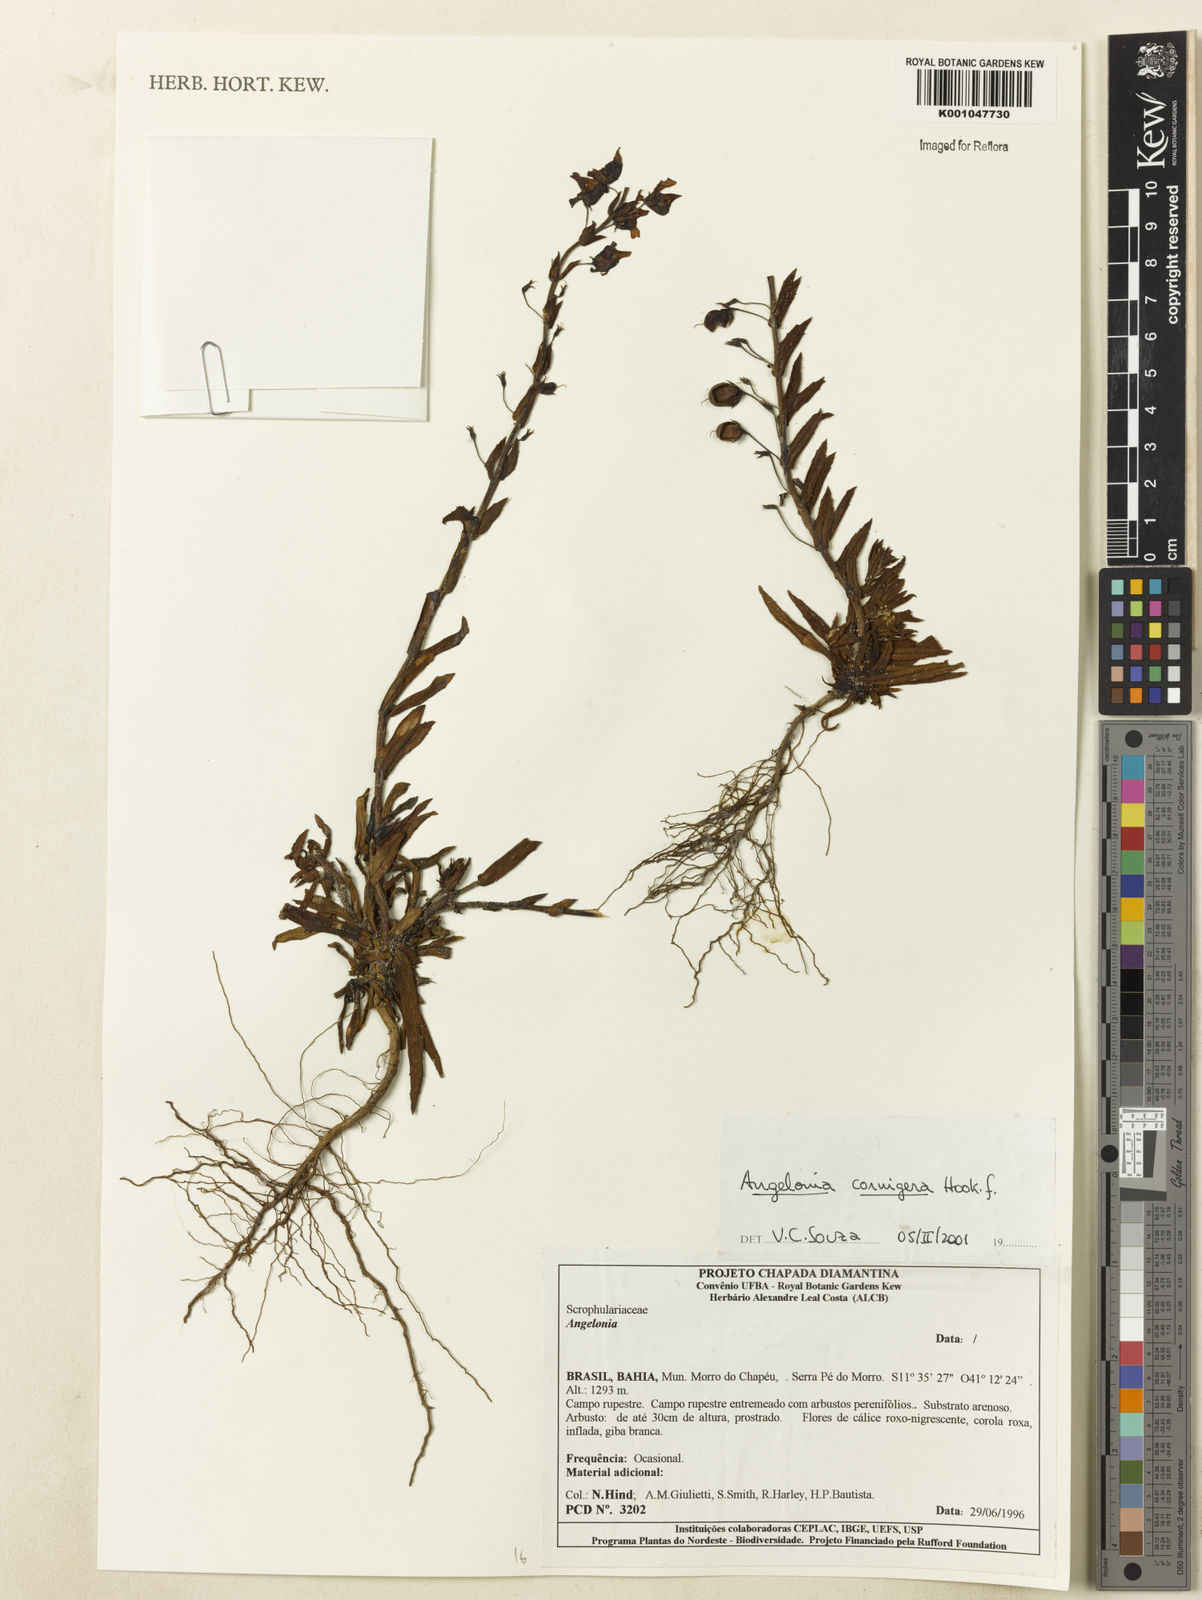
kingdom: Plantae
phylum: Tracheophyta
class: Magnoliopsida
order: Lamiales
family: Plantaginaceae
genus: Angelonia
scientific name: Angelonia cornigera
